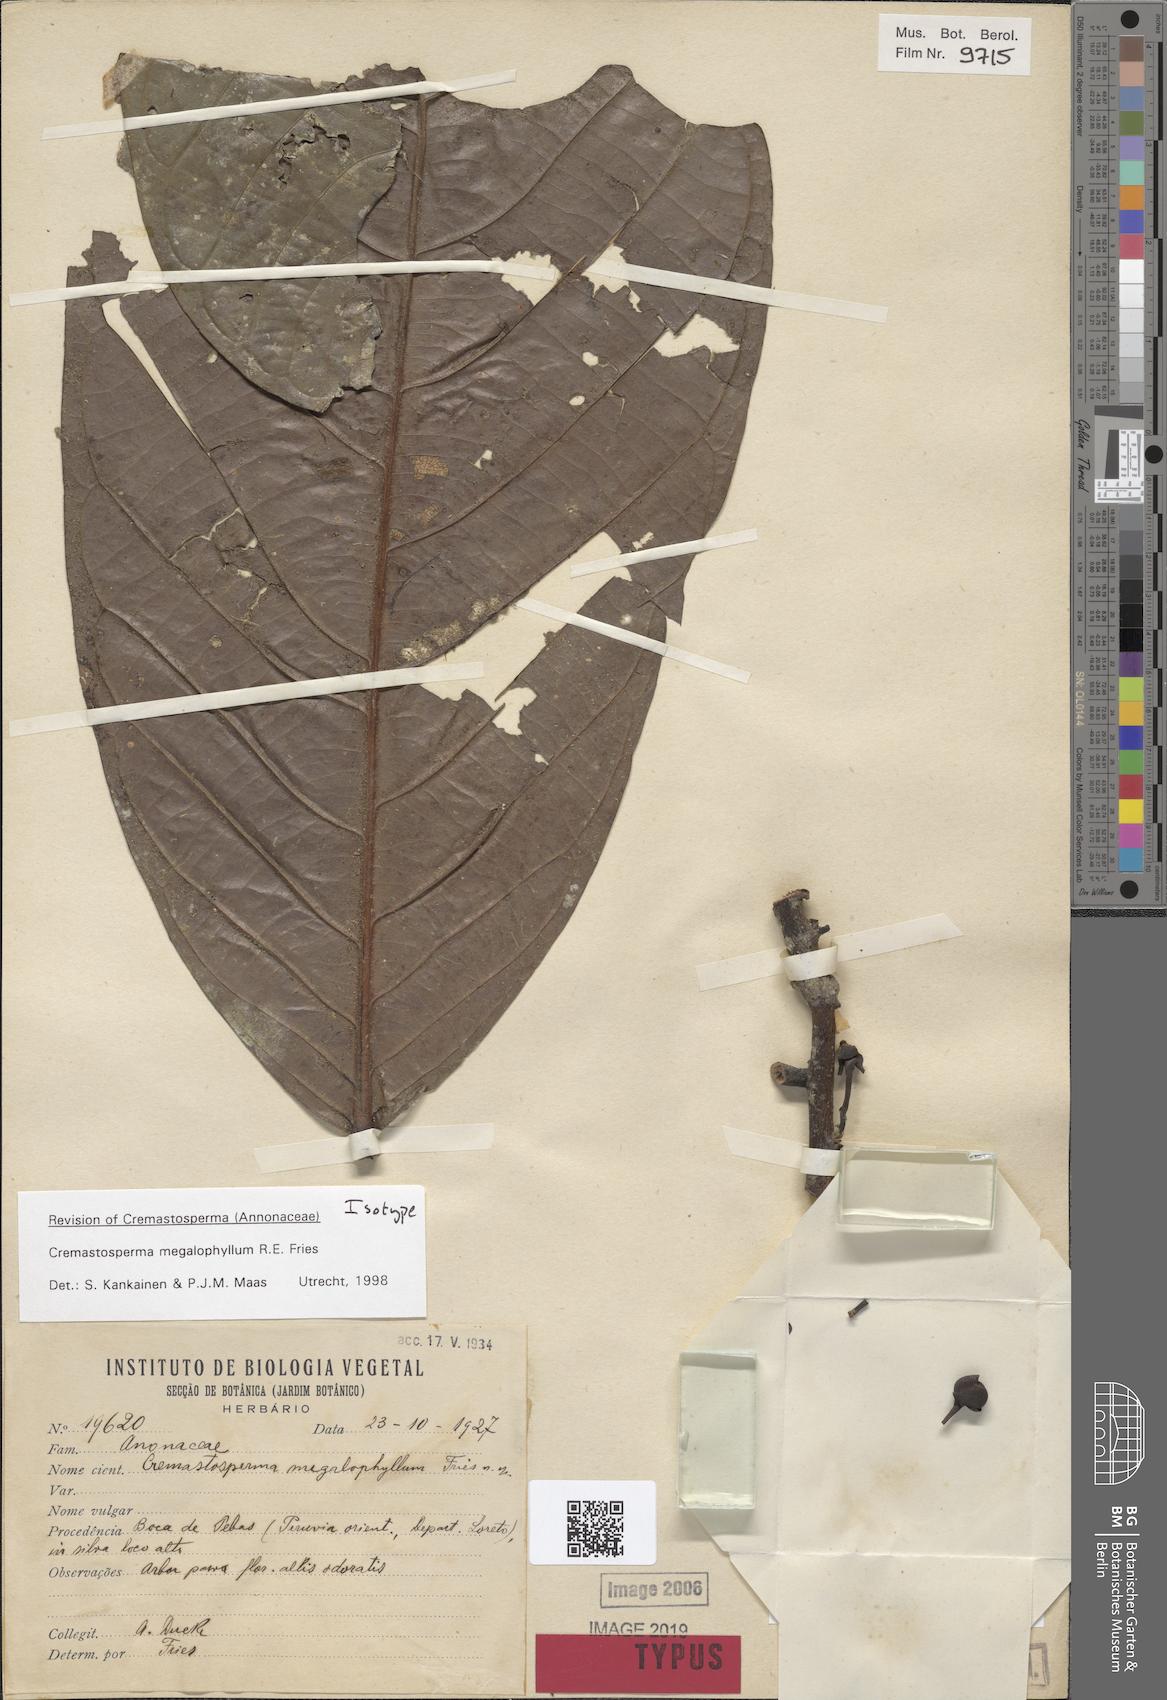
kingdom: Plantae
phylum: Tracheophyta
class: Magnoliopsida
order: Magnoliales
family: Annonaceae
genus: Cremastosperma
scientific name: Cremastosperma megalophyllum
